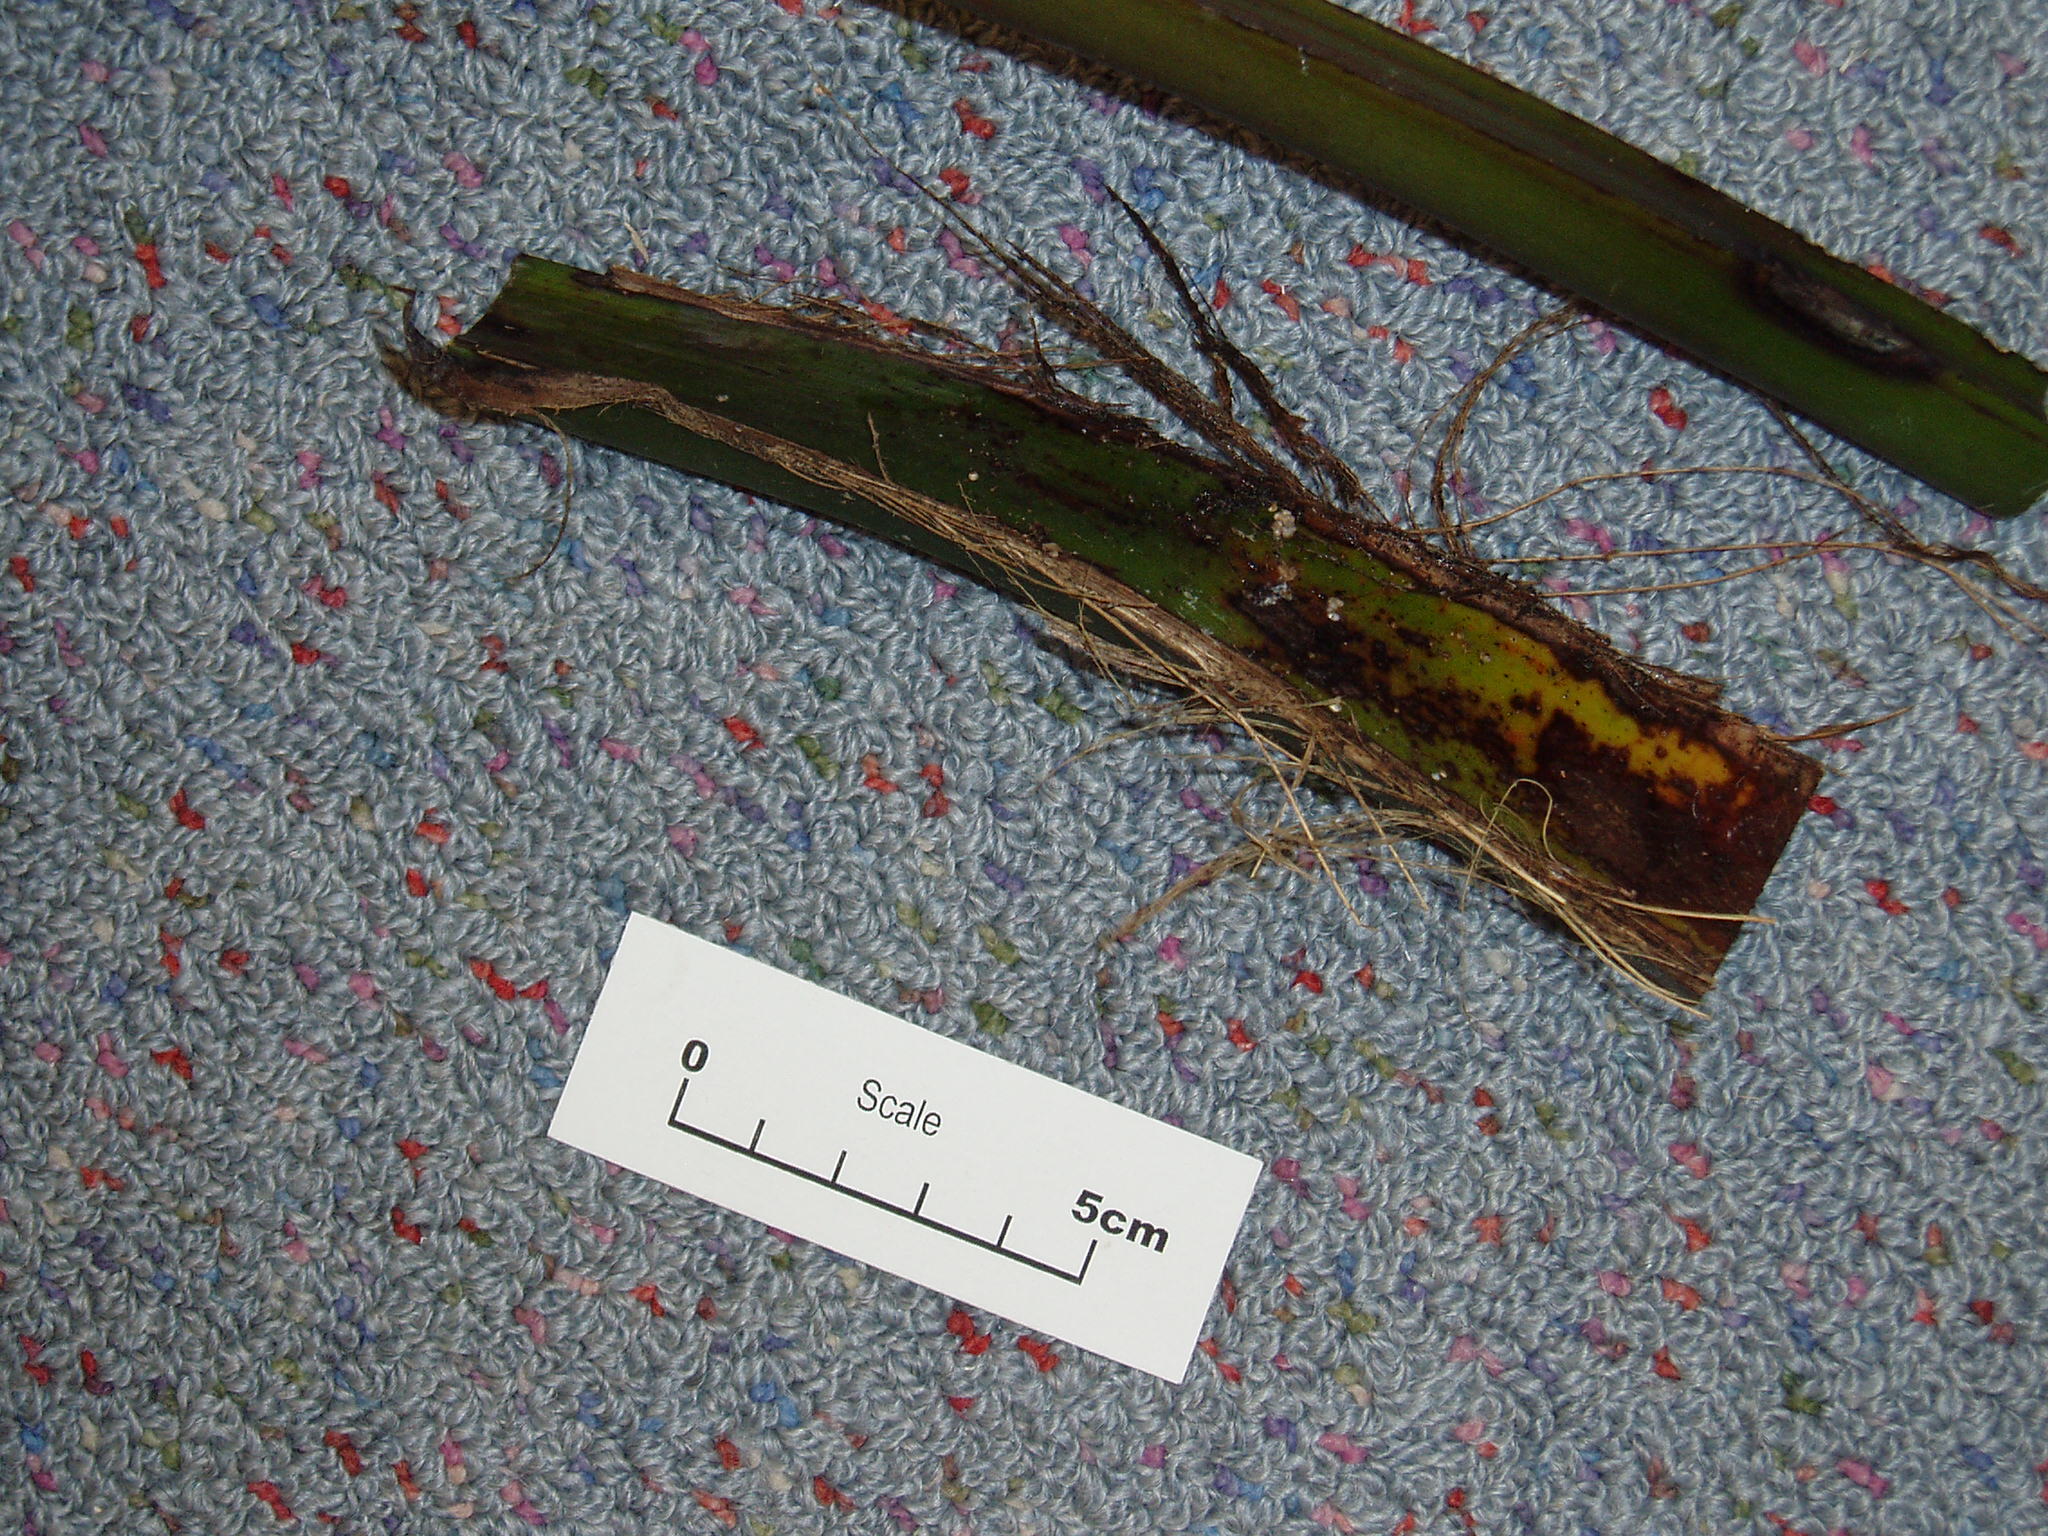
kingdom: Plantae
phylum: Tracheophyta
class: Liliopsida
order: Arecales
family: Arecaceae
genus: Howea
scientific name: Howea belmoreana
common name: Curly palm
